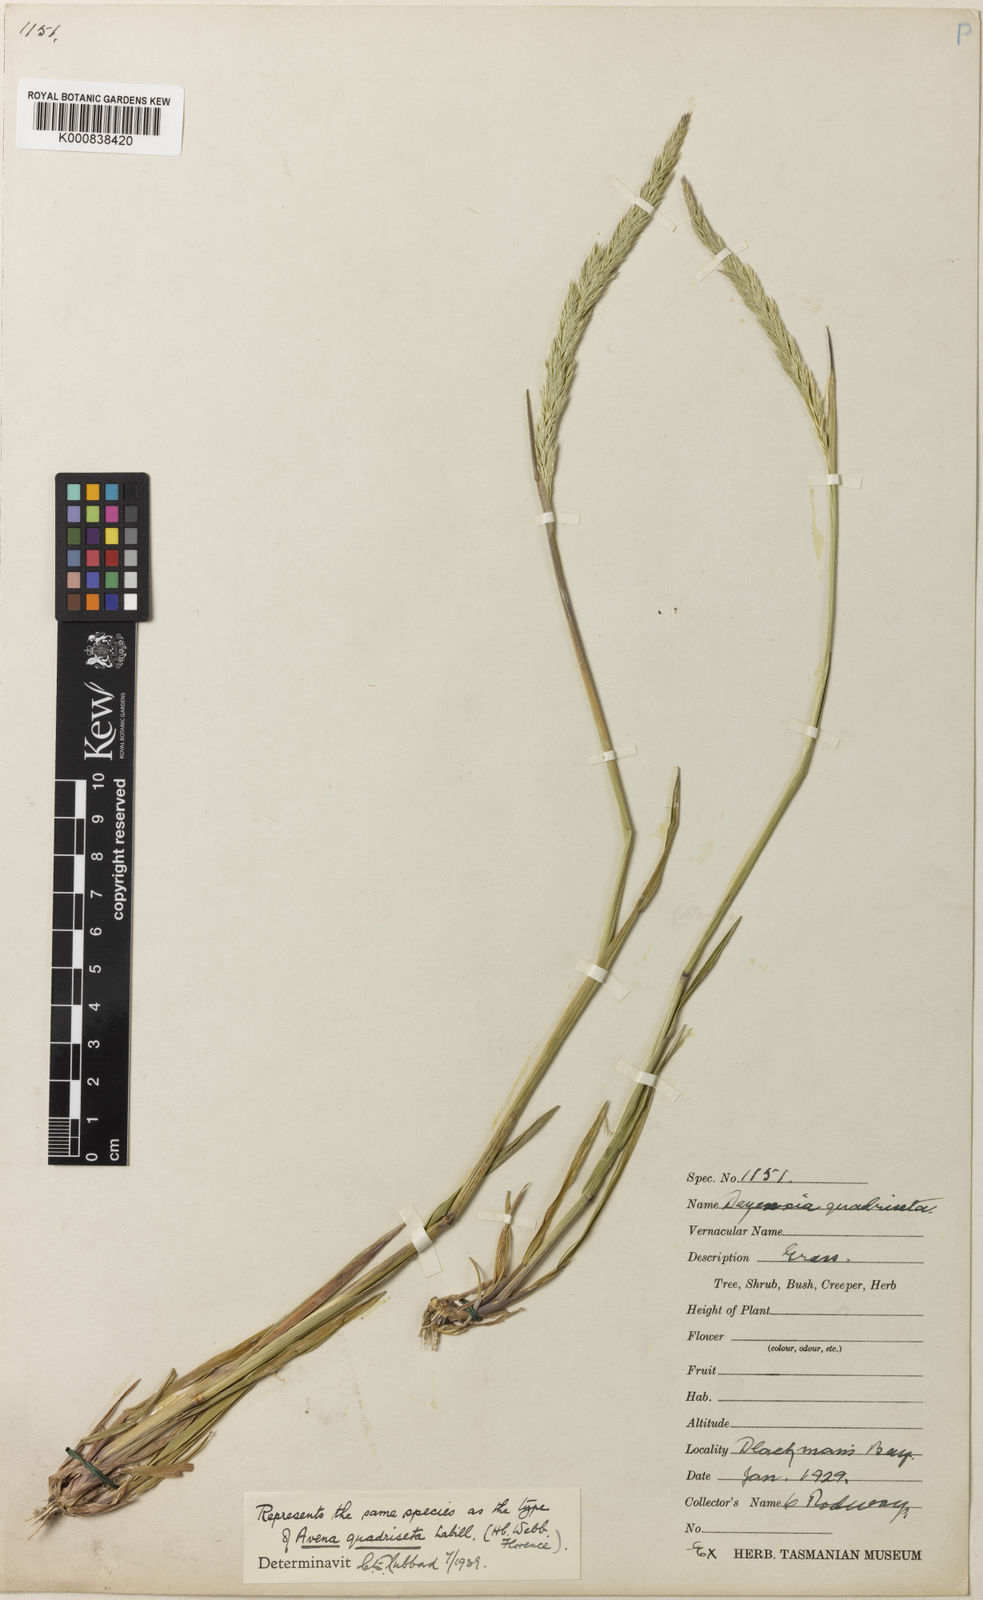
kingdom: Plantae
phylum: Tracheophyta
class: Liliopsida
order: Poales
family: Poaceae
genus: Calamagrostis
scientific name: Calamagrostis quadriseta
